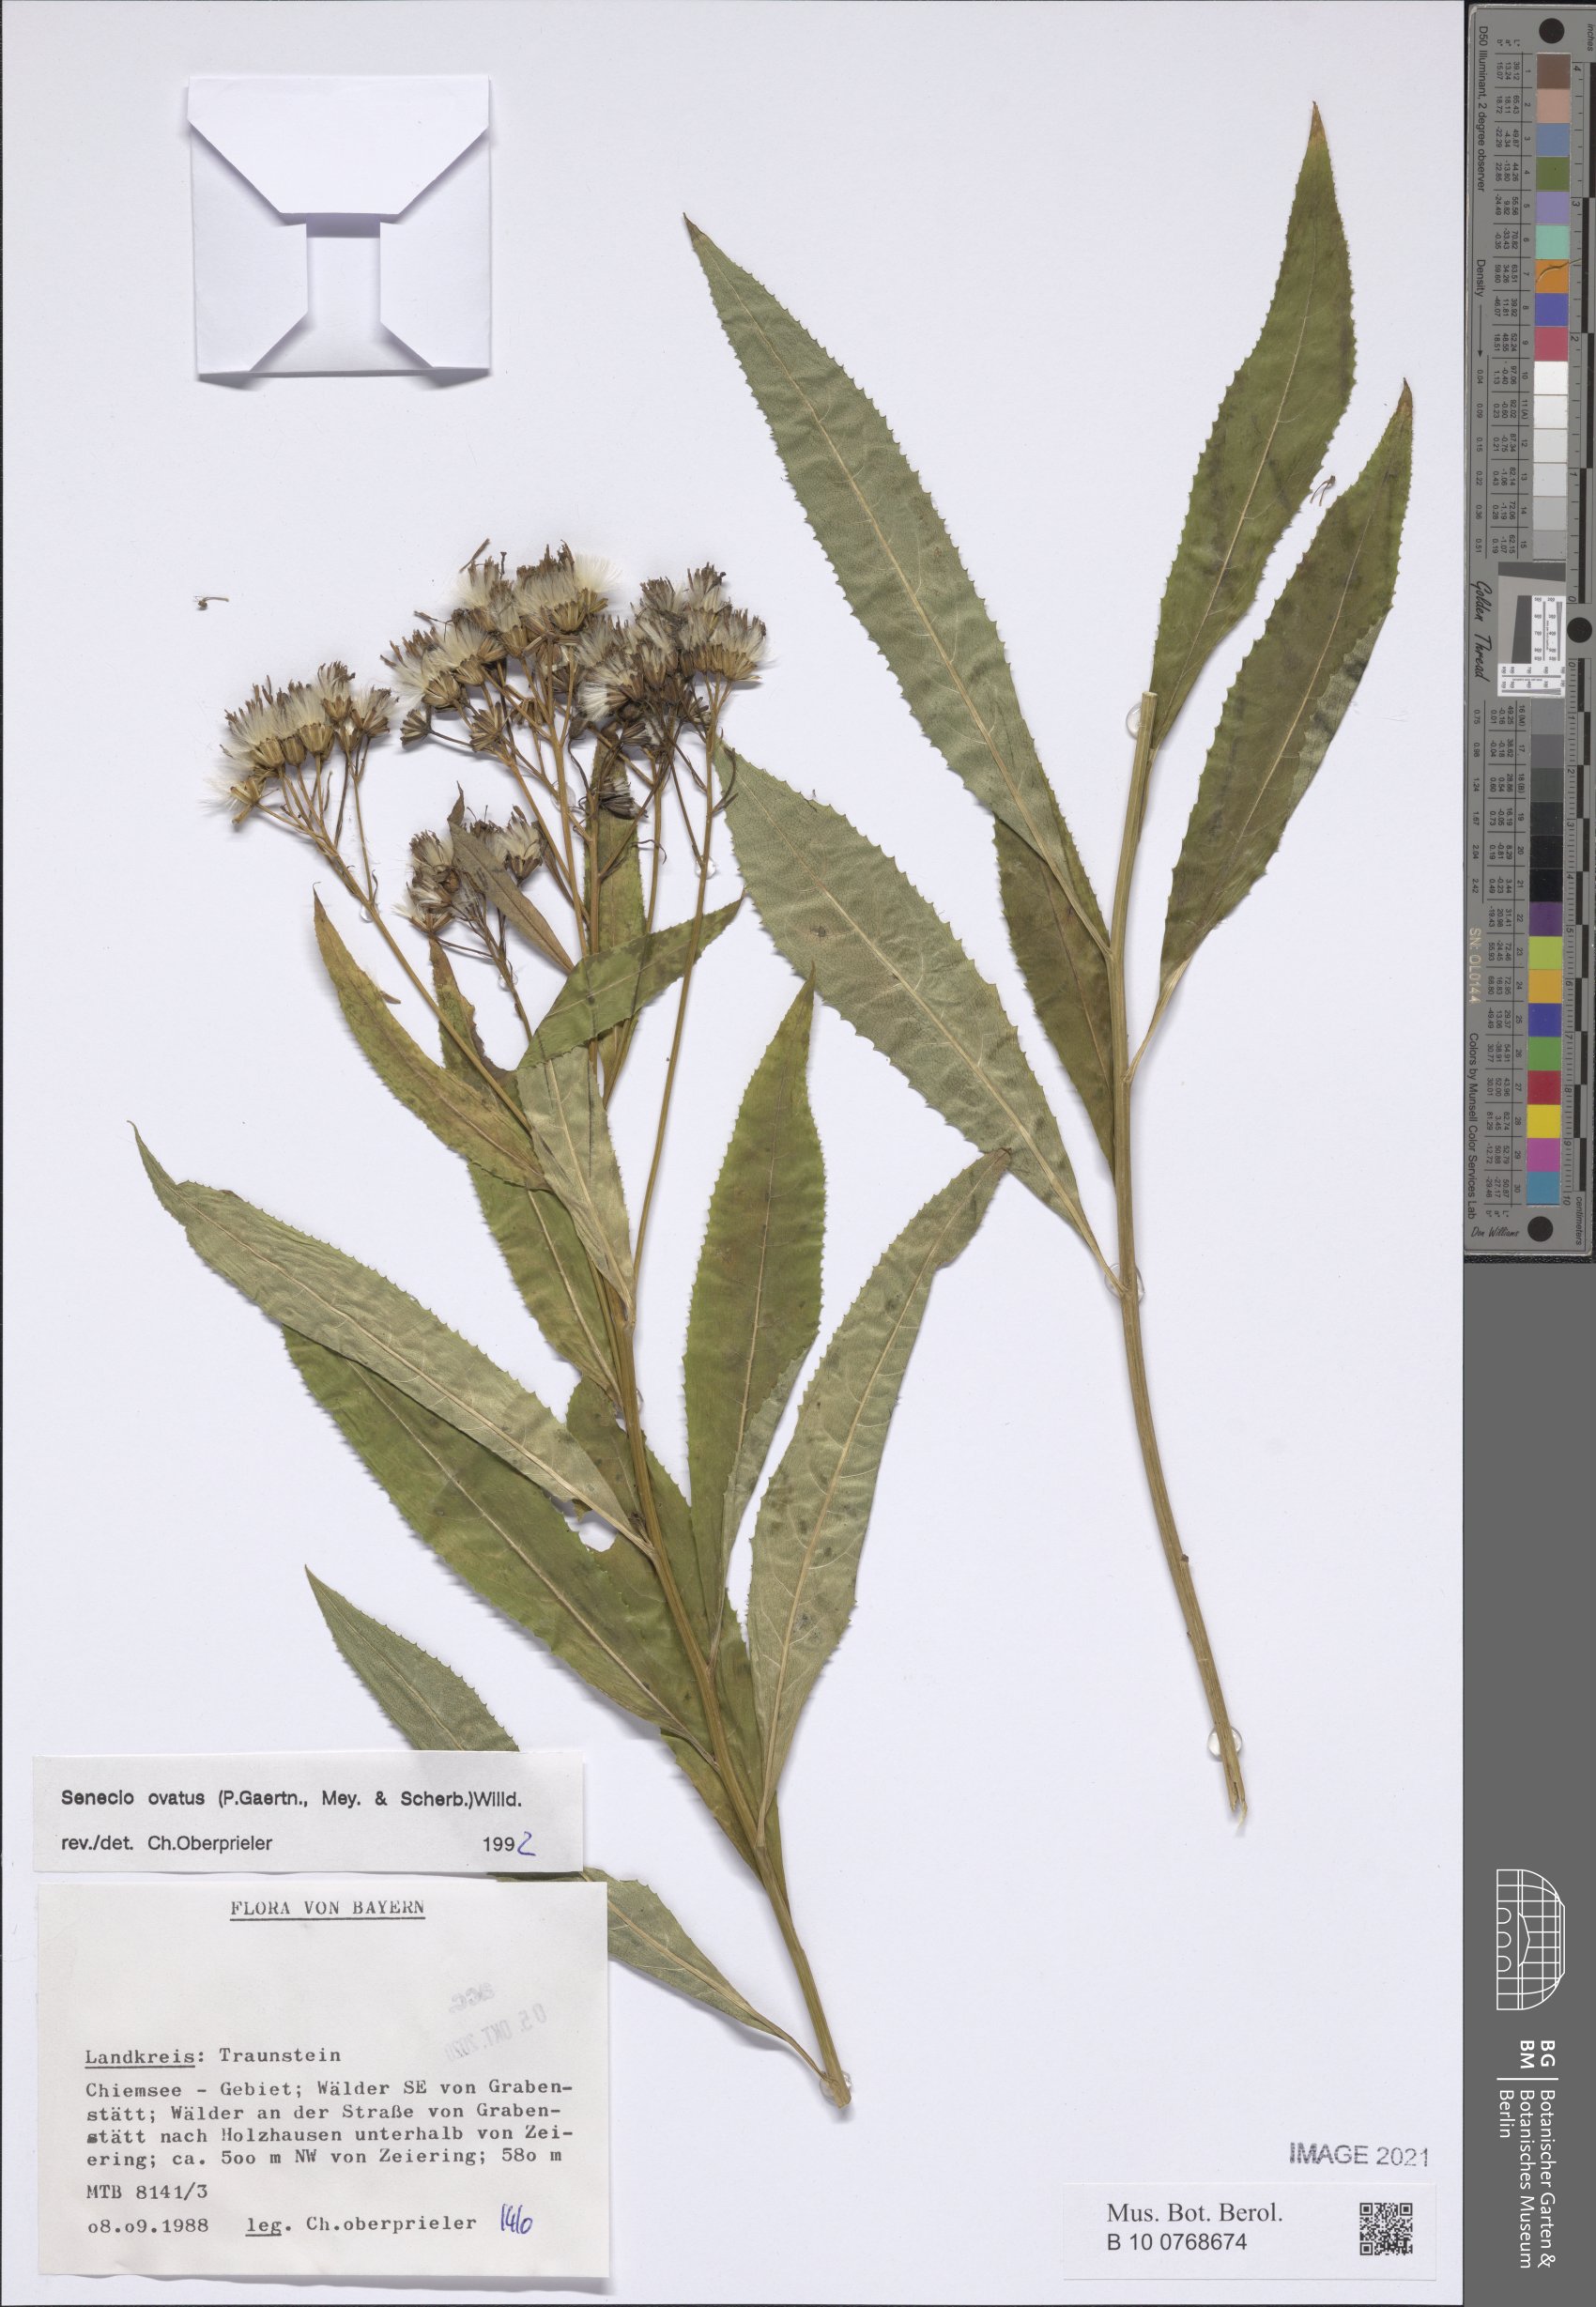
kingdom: Plantae
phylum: Tracheophyta
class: Magnoliopsida
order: Asterales
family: Asteraceae
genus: Senecio
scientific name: Senecio ovatus
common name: Wood ragwort
